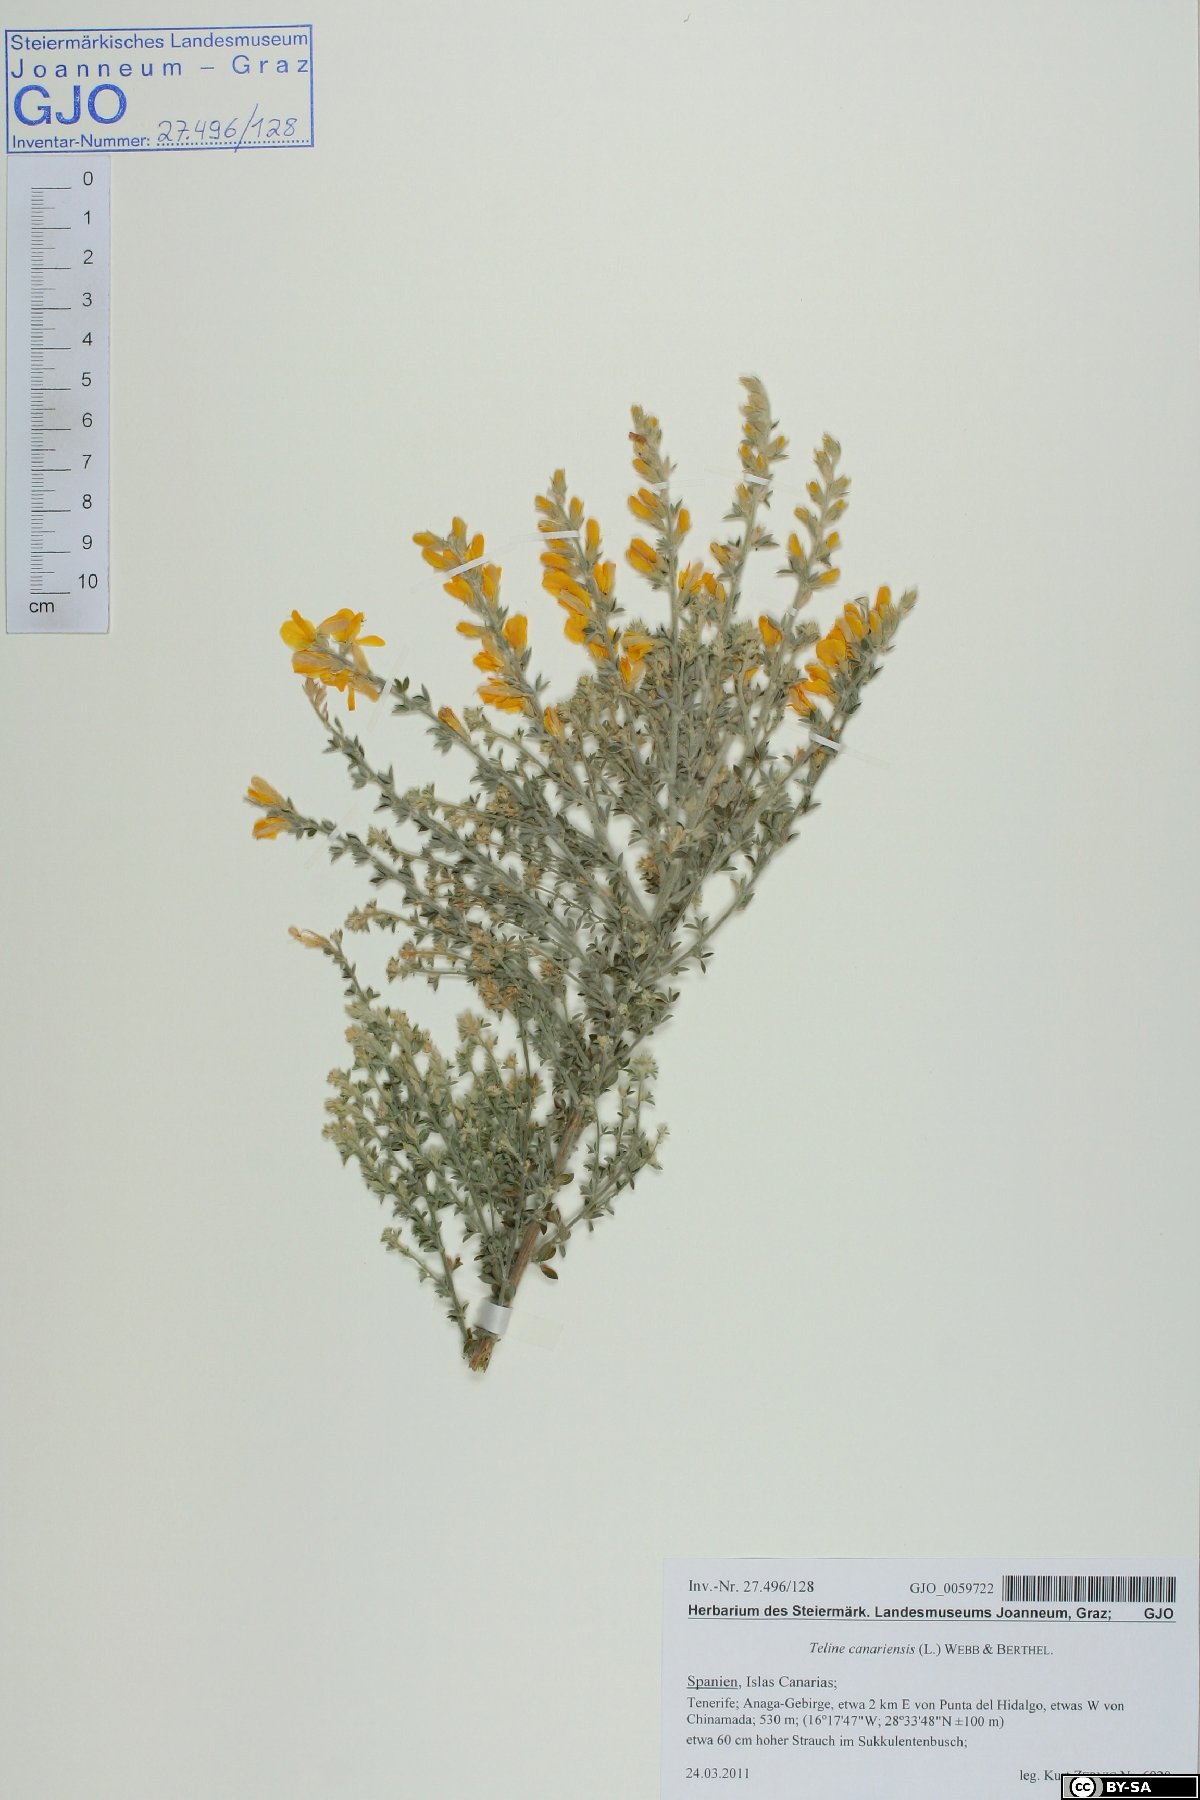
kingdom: Plantae
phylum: Tracheophyta
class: Magnoliopsida
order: Fabales
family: Fabaceae
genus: Genista
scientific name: Genista canariensis
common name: Canary broom
